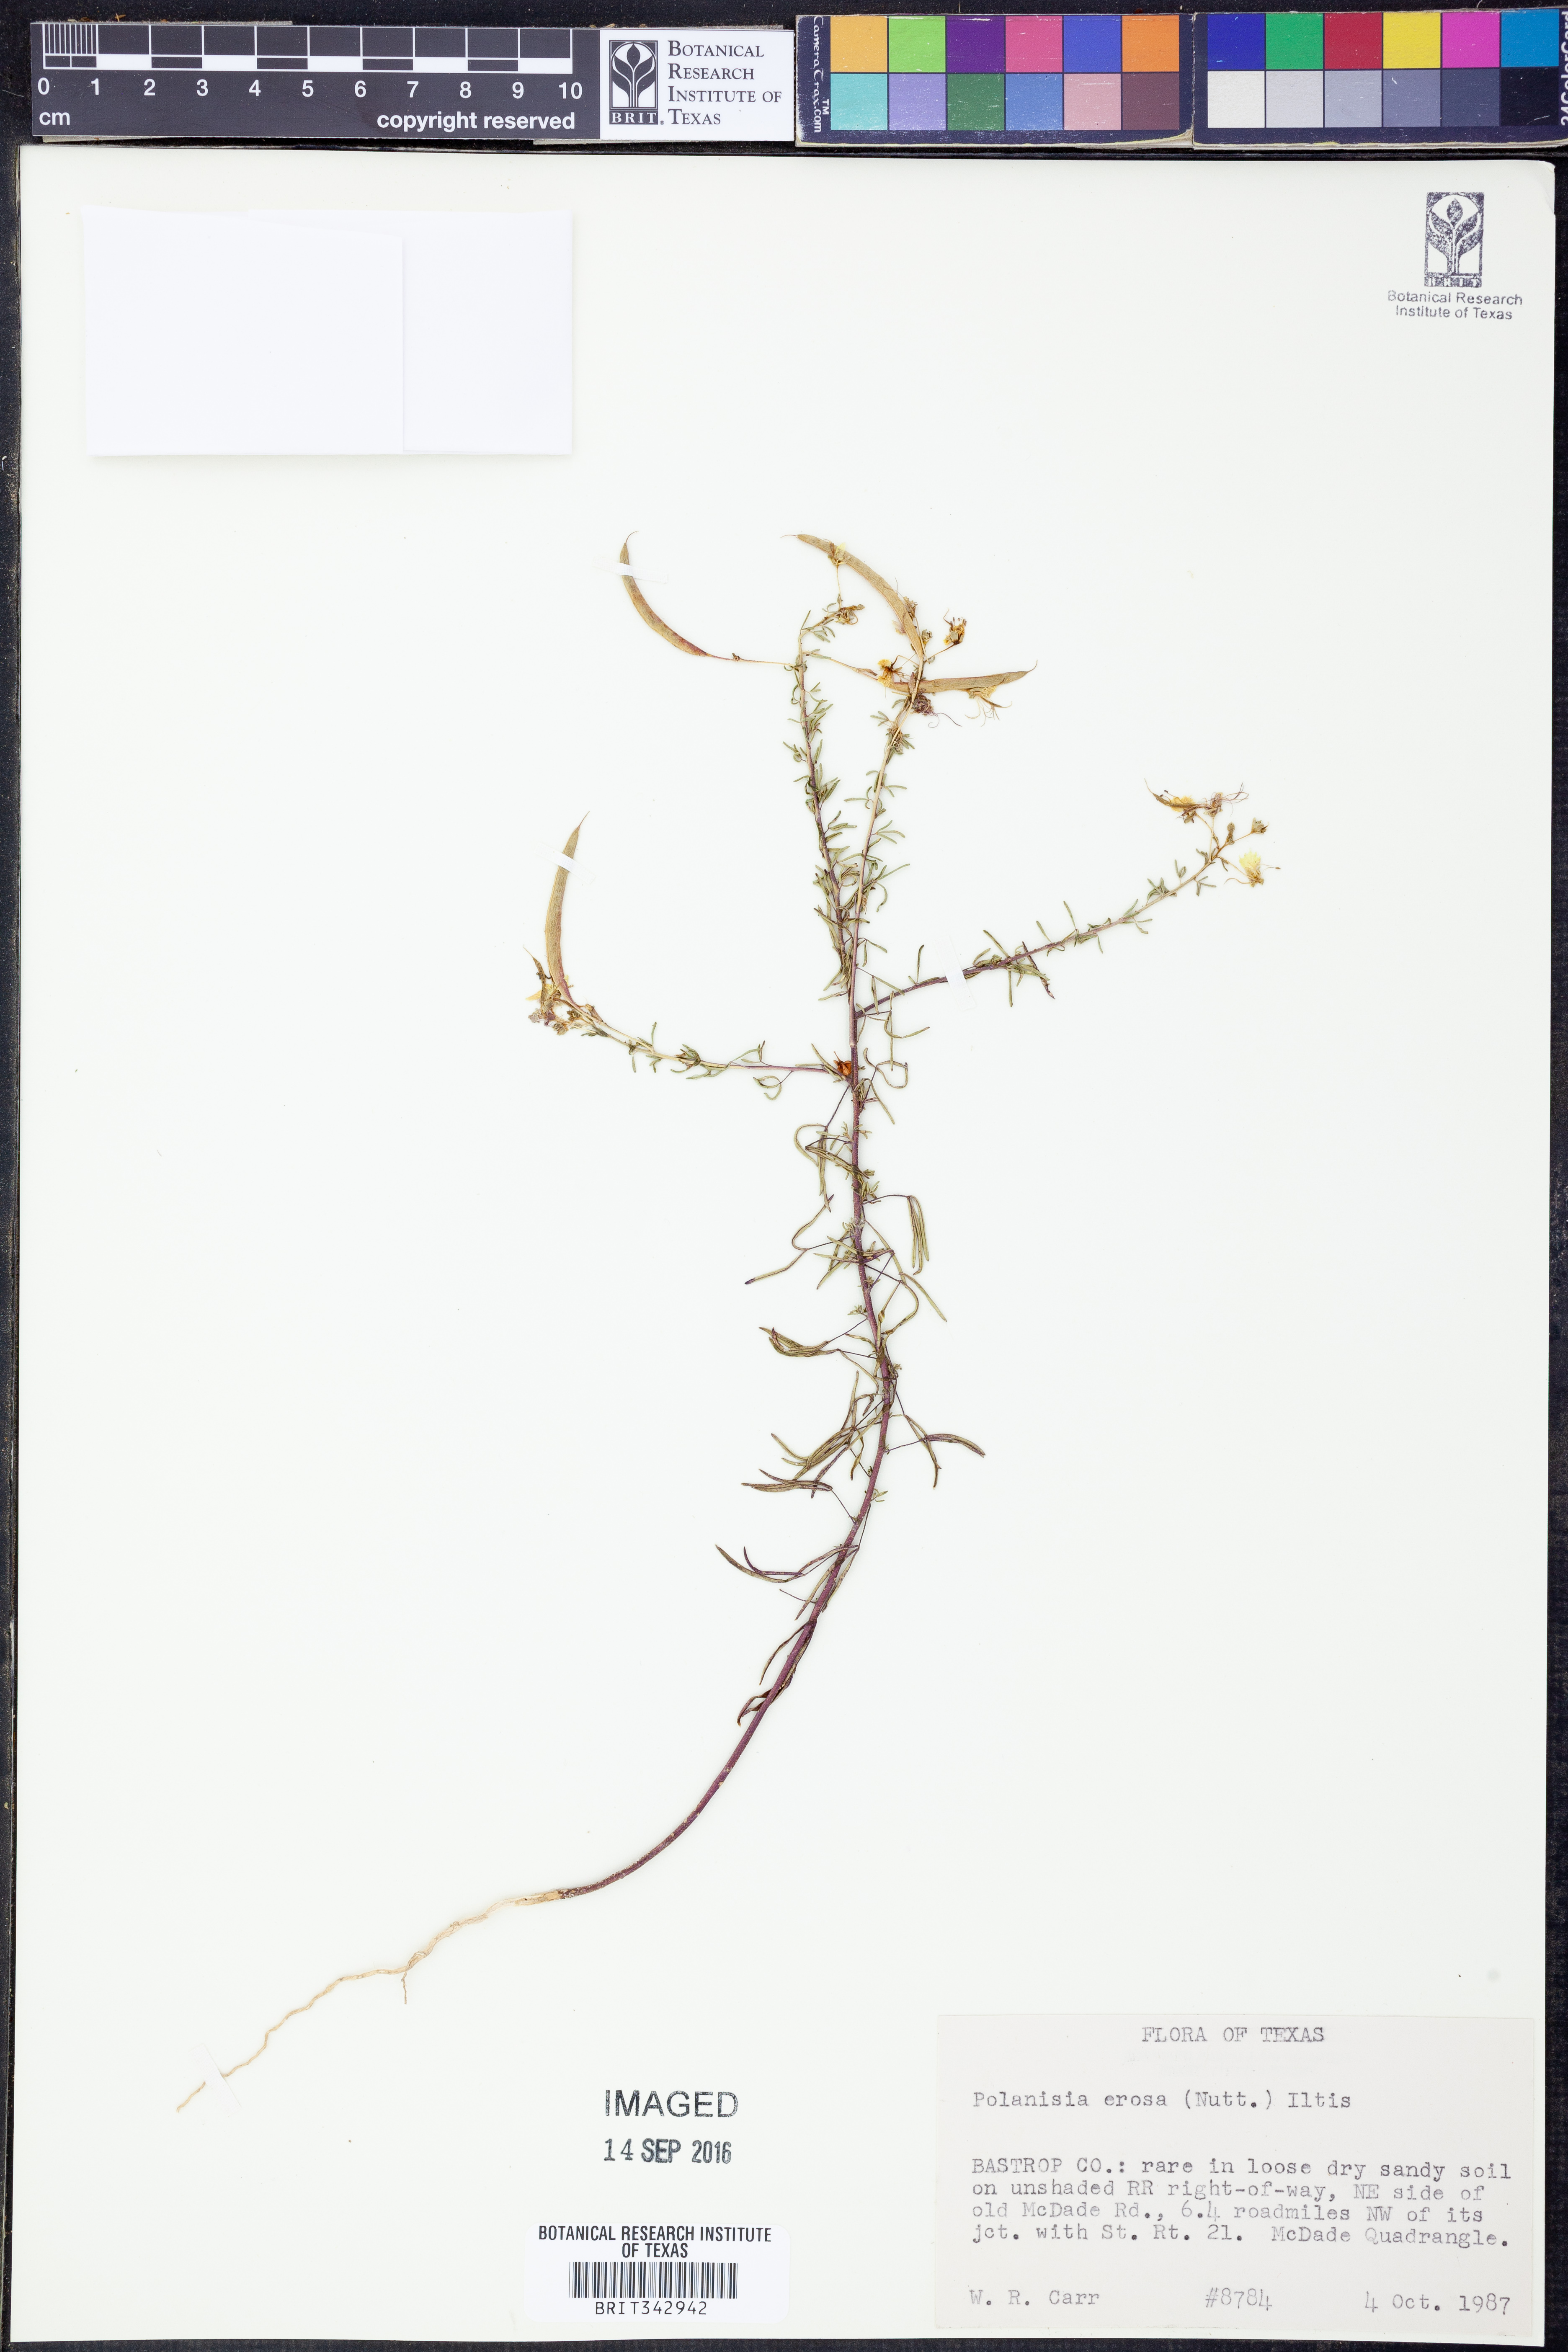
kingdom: Plantae
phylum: Tracheophyta
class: Magnoliopsida
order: Brassicales
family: Cleomaceae
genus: Polanisia
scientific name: Polanisia erosa
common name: Large clammyweed
